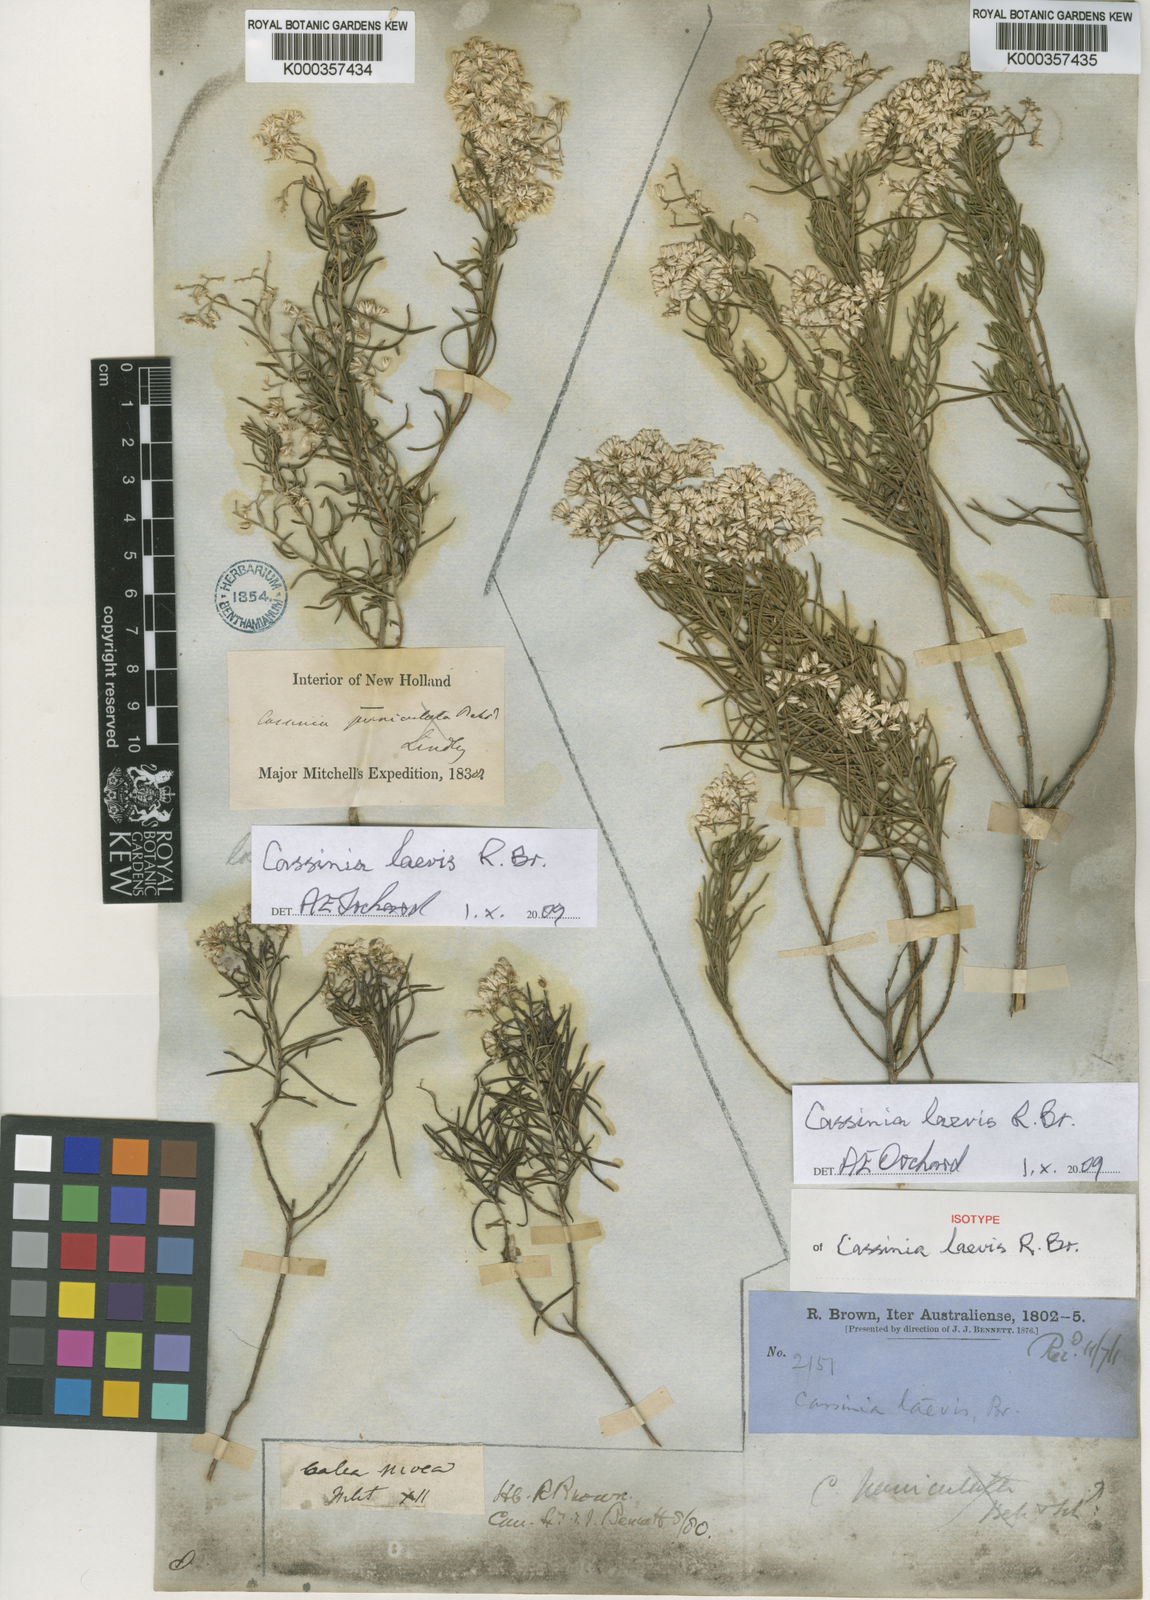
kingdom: Plantae
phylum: Tracheophyta
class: Magnoliopsida
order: Asterales
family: Asteraceae
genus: Cassinia
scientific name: Cassinia laevis
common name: Coughbush
